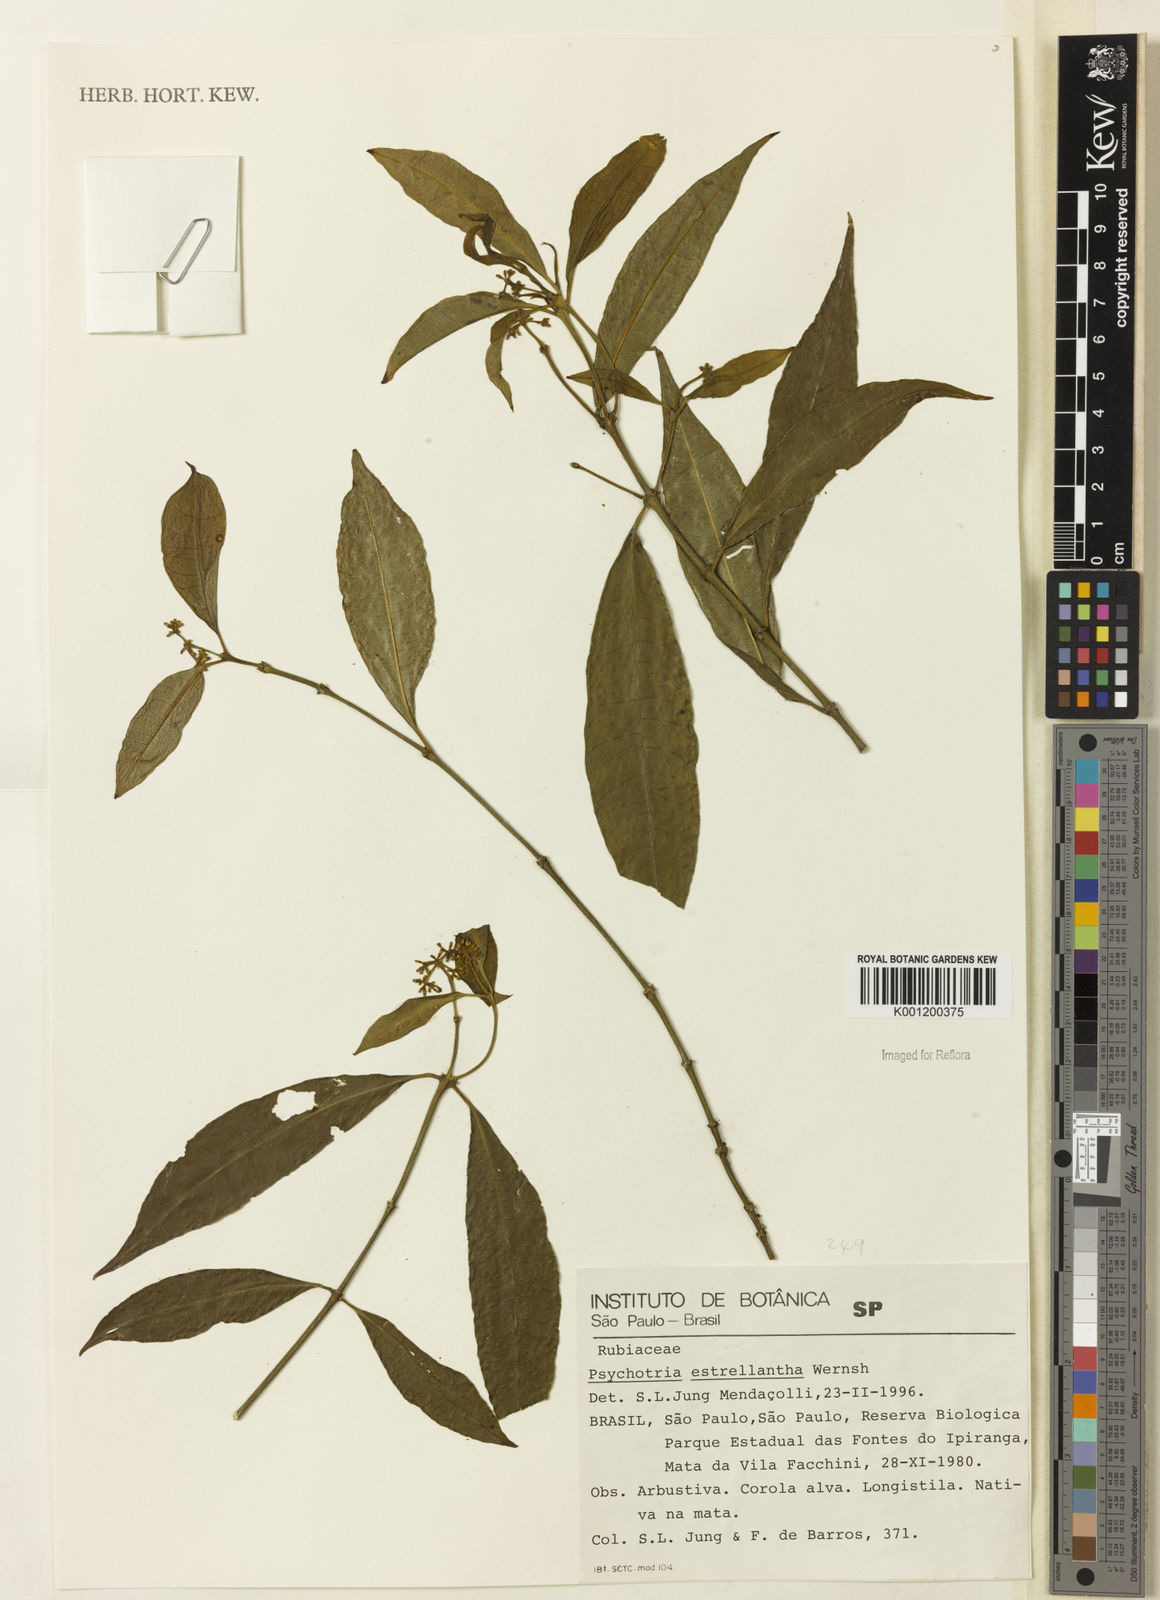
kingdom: Plantae
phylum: Tracheophyta
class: Magnoliopsida
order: Gentianales
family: Rubiaceae
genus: Psychotria
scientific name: Psychotria
